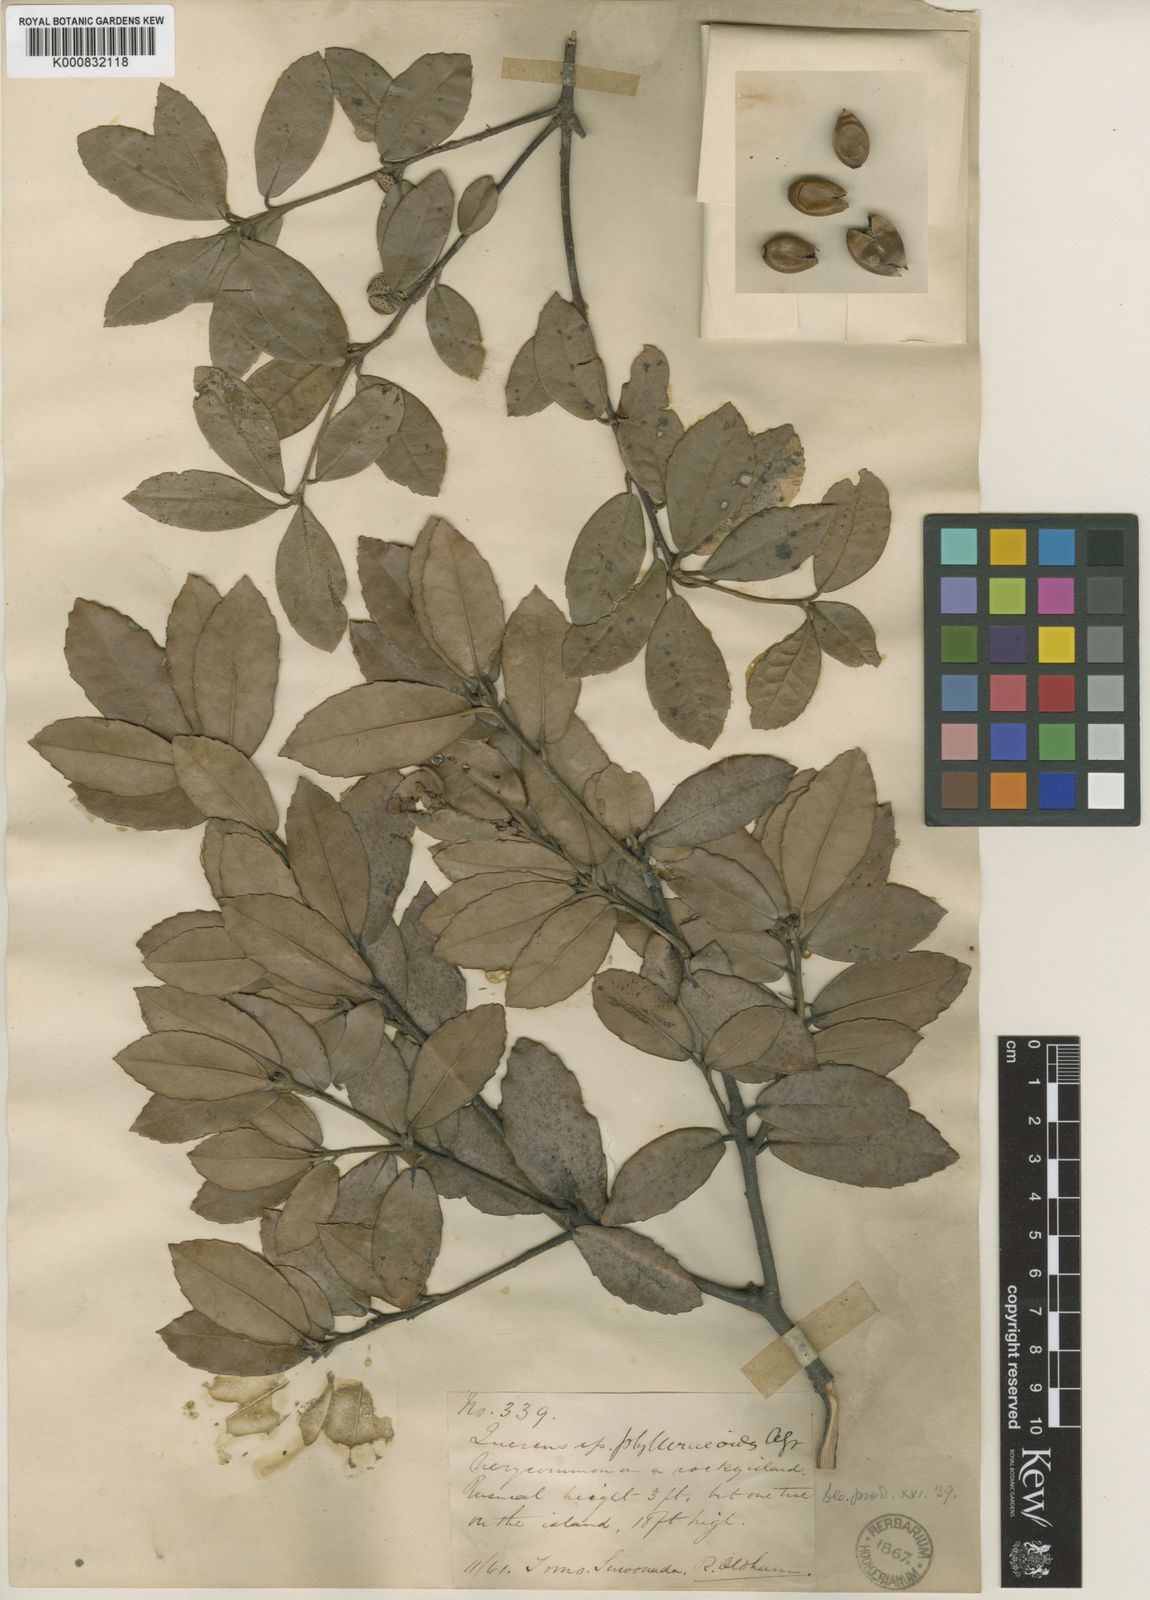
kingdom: Plantae
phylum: Tracheophyta
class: Magnoliopsida
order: Fagales
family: Fagaceae
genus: Quercus
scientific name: Quercus phillyreoides
